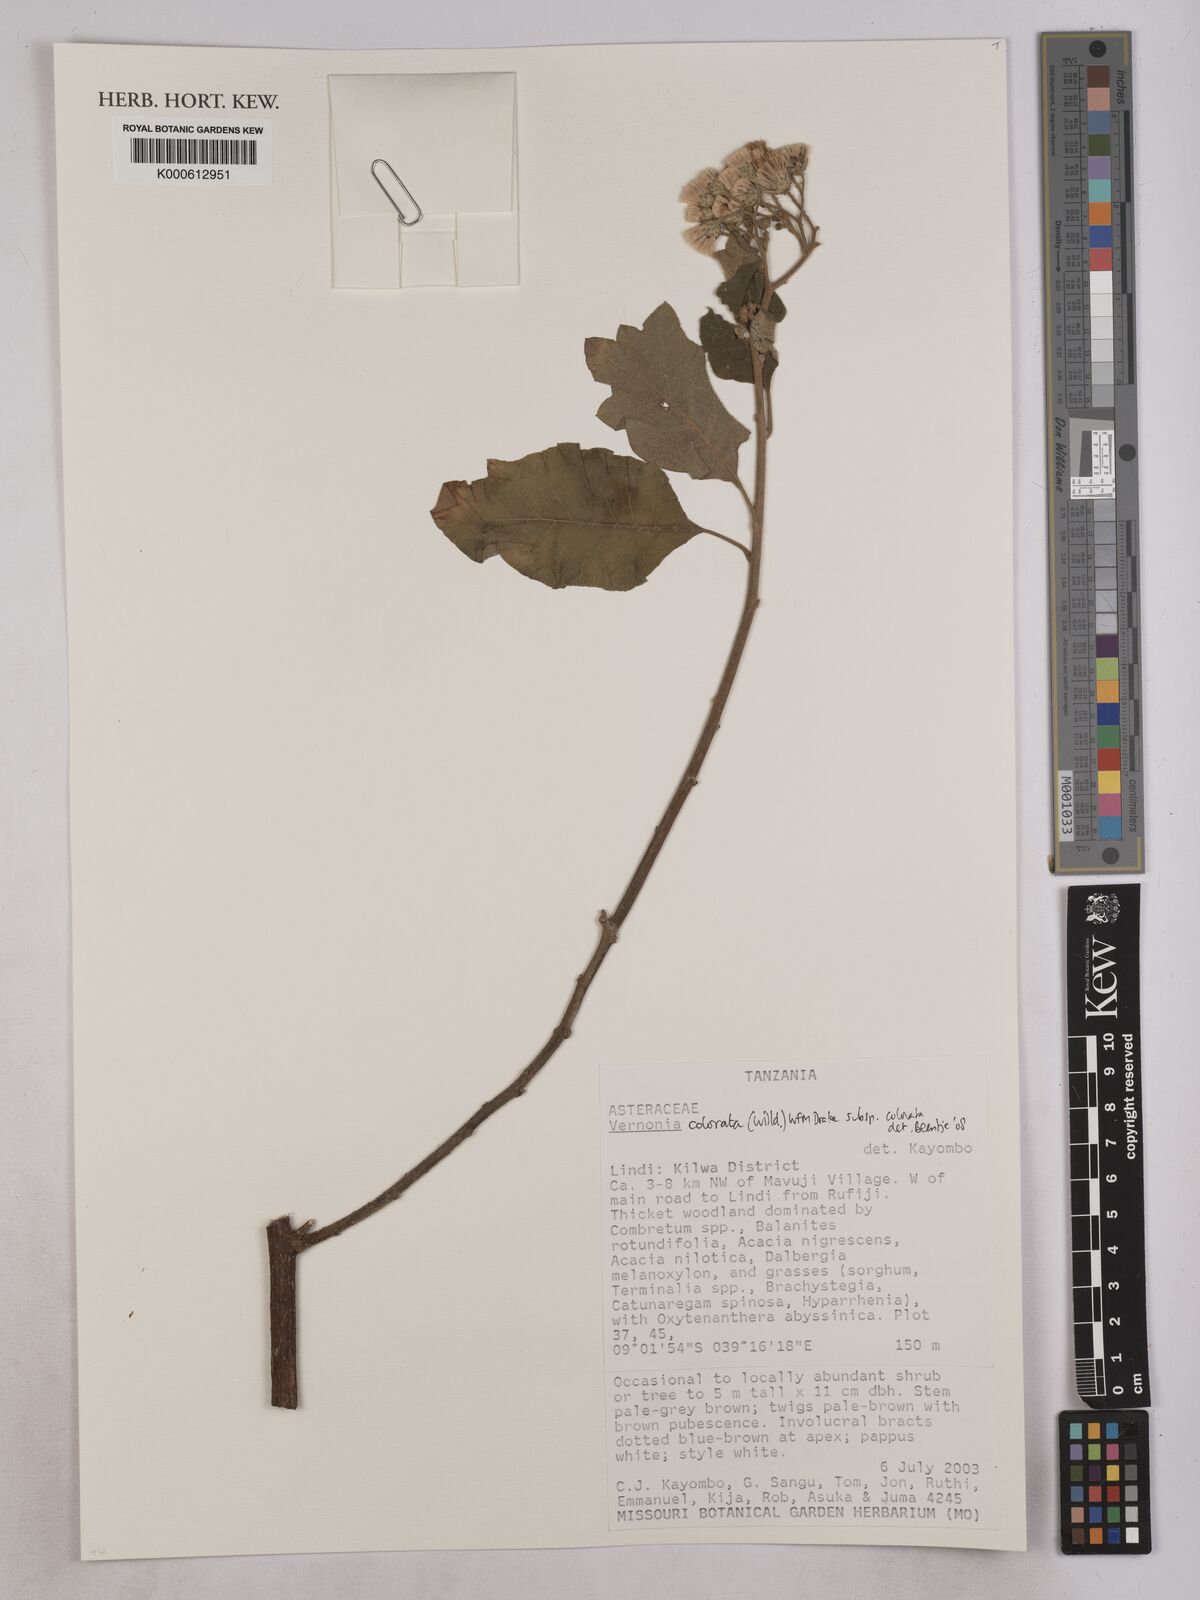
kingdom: Plantae
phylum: Tracheophyta
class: Magnoliopsida
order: Asterales
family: Asteraceae
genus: Vernonia
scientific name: Vernonia colorata
